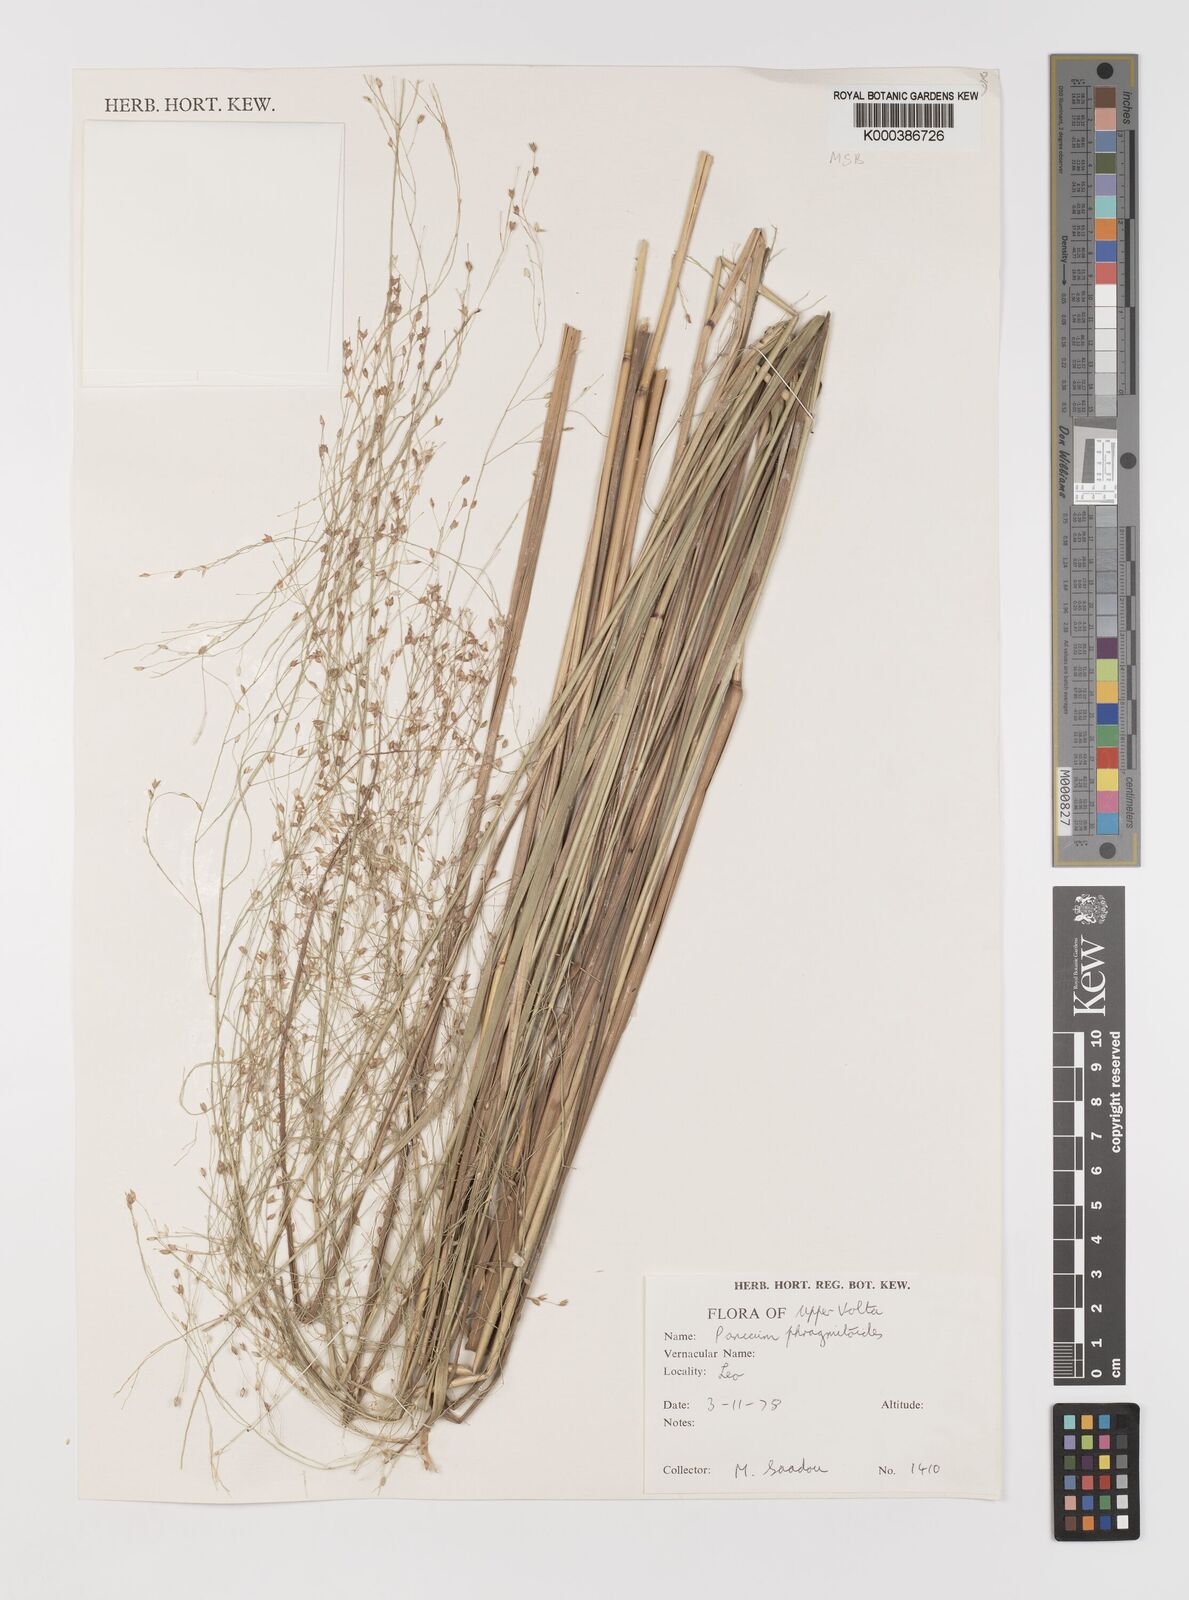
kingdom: Plantae
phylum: Tracheophyta
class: Liliopsida
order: Poales
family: Poaceae
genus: Panicum
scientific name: Panicum phragmitoides
